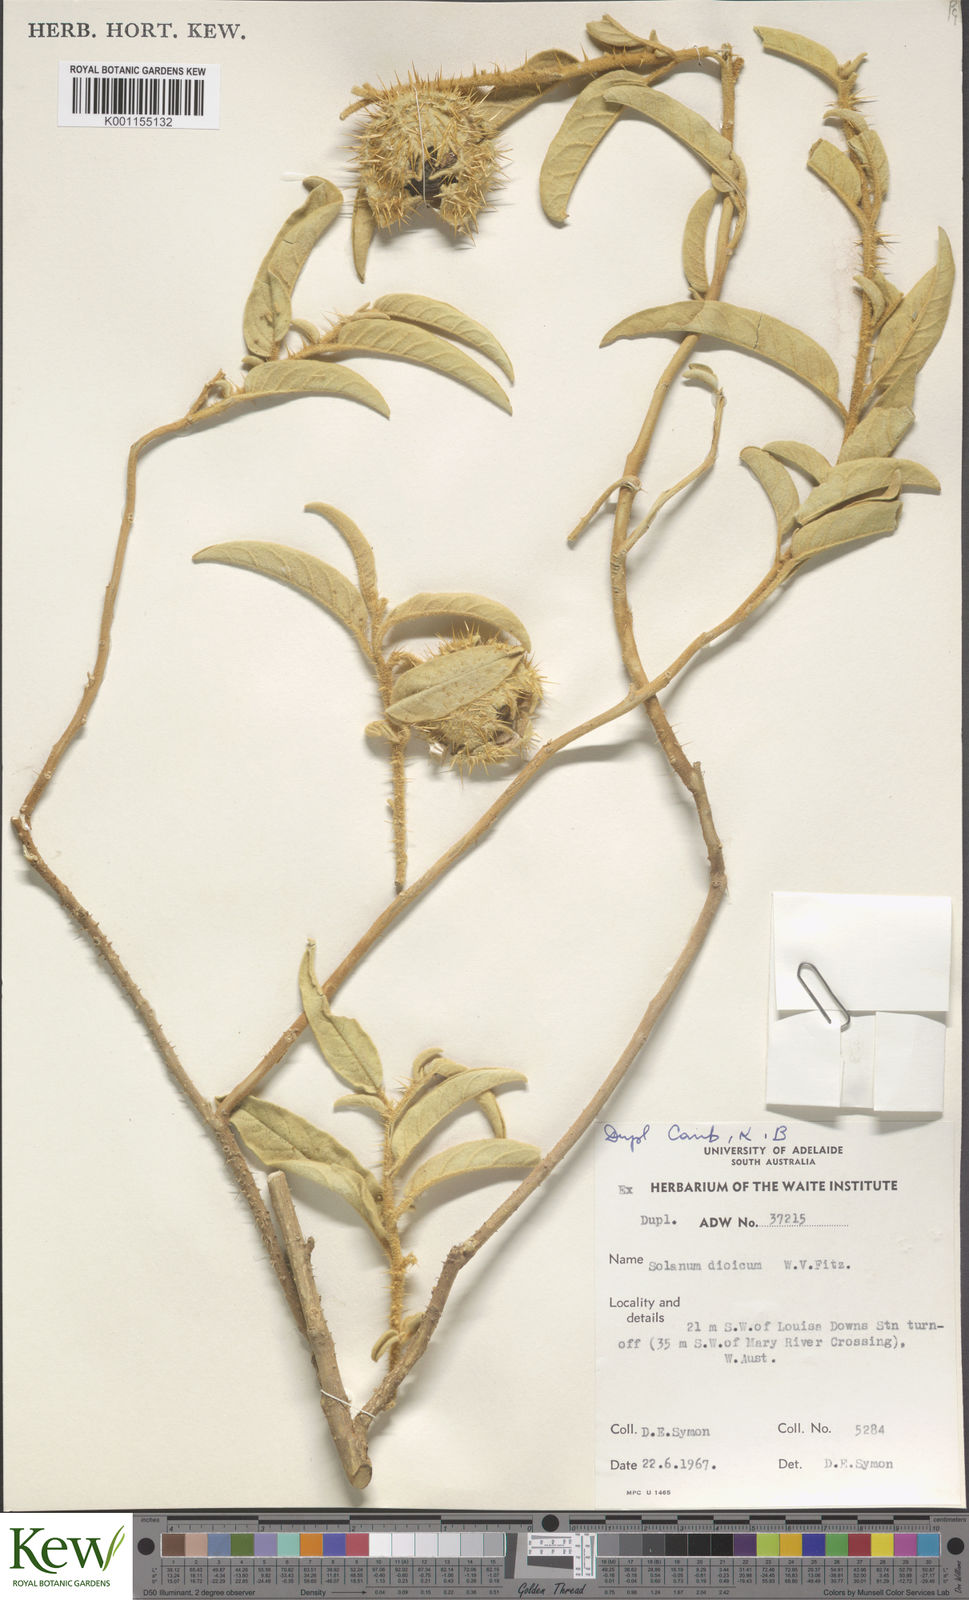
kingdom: Plantae
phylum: Tracheophyta
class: Magnoliopsida
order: Solanales
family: Solanaceae
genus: Solanum
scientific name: Solanum dioicum
